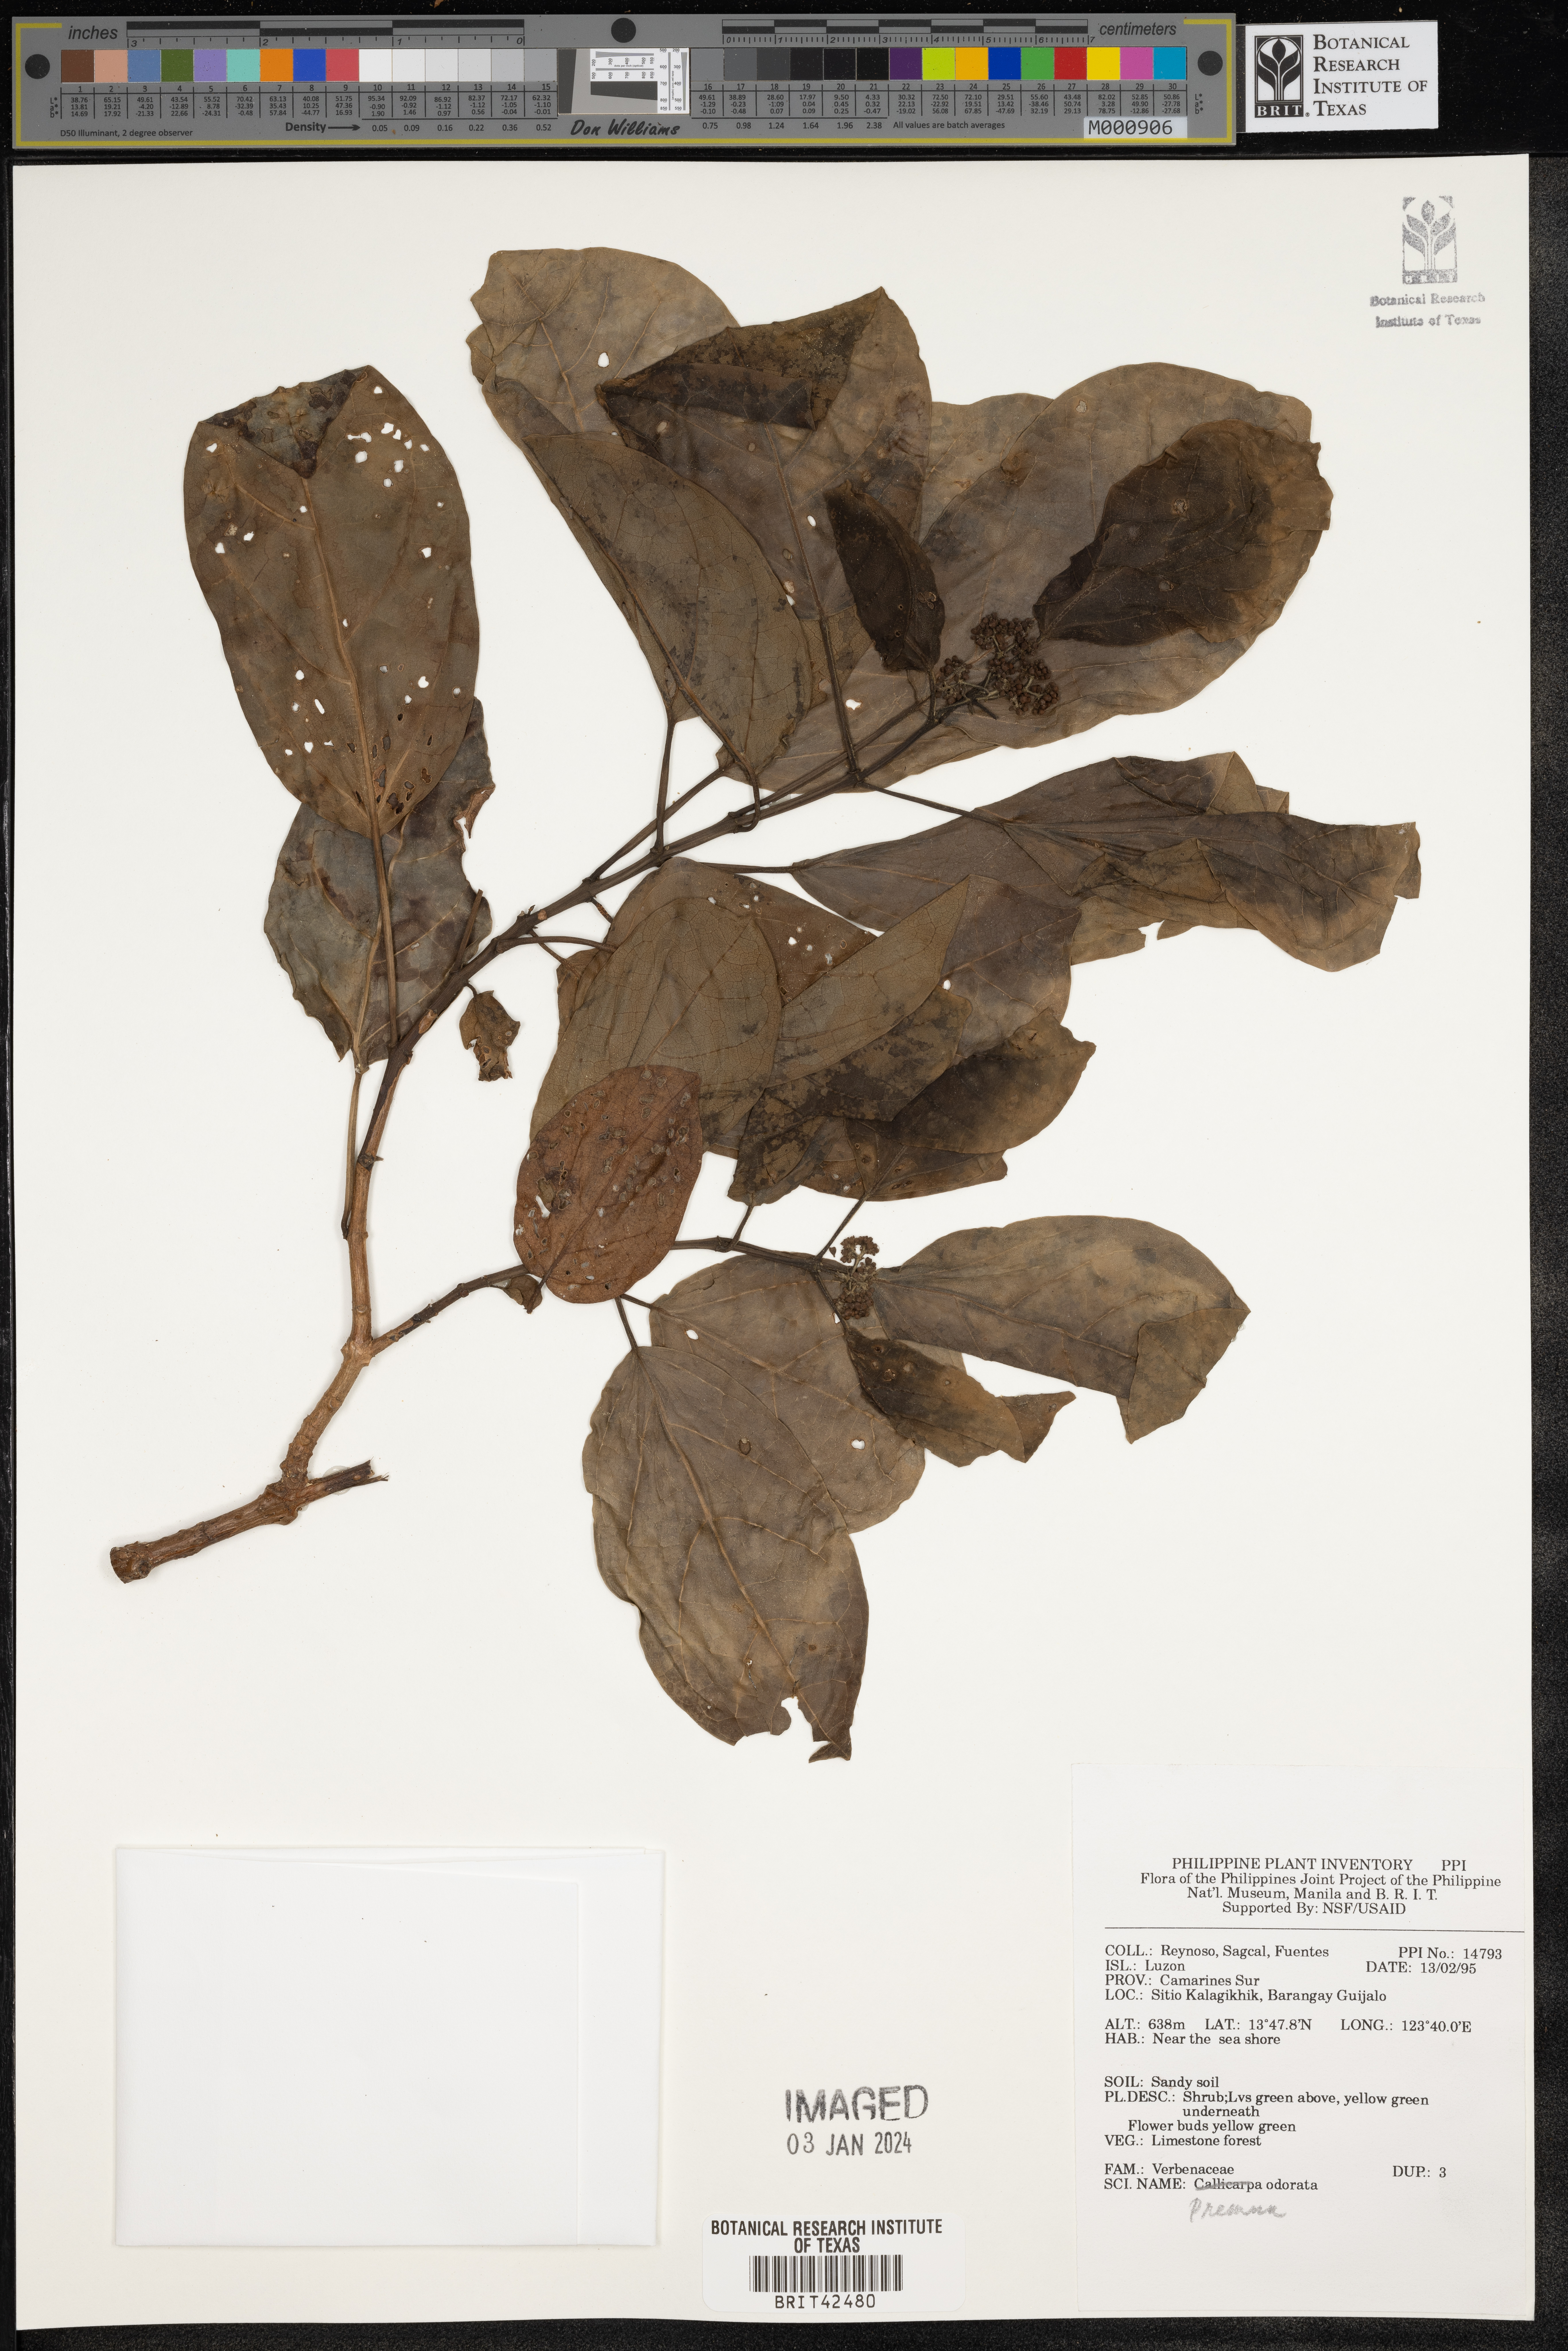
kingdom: Plantae
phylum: Tracheophyta
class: Magnoliopsida
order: Lamiales
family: Lamiaceae
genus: Premna
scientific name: Premna odorata
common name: Fragrant premna
